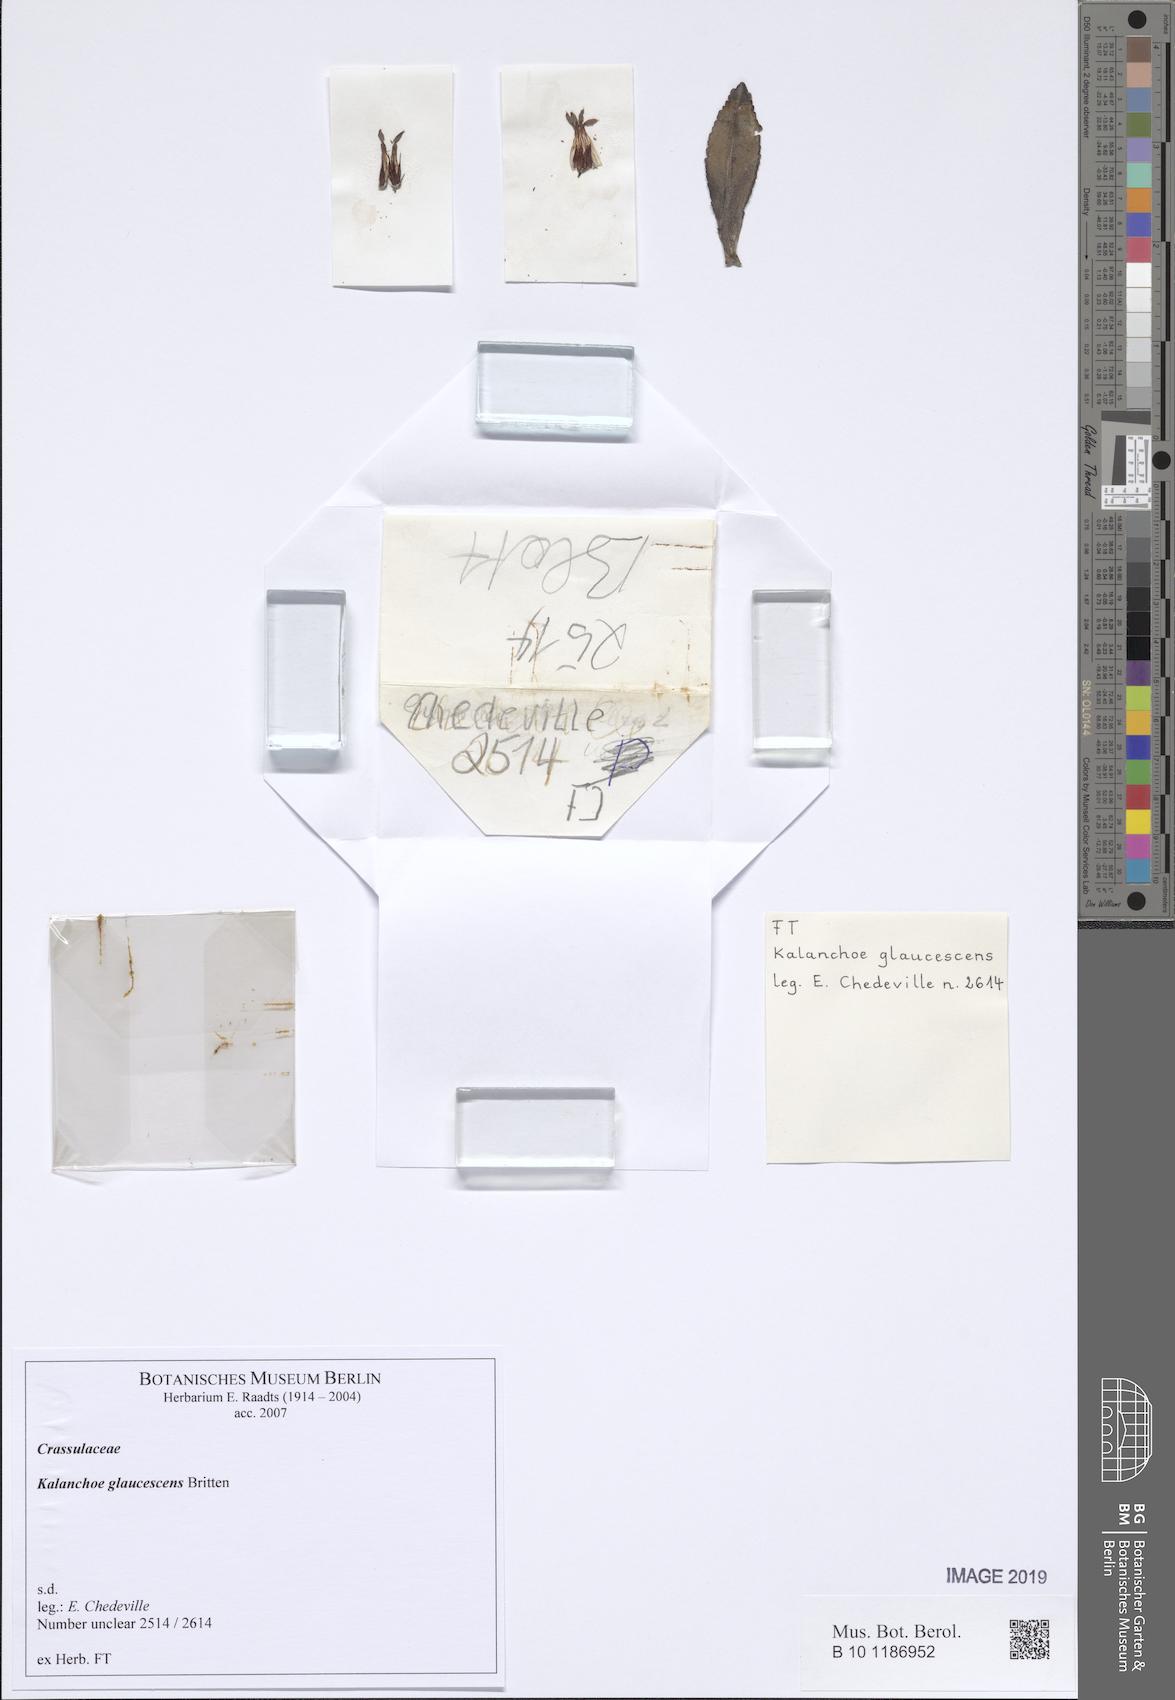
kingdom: Plantae
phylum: Tracheophyta
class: Magnoliopsida
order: Saxifragales
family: Crassulaceae
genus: Kalanchoe
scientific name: Kalanchoe glaucescens
